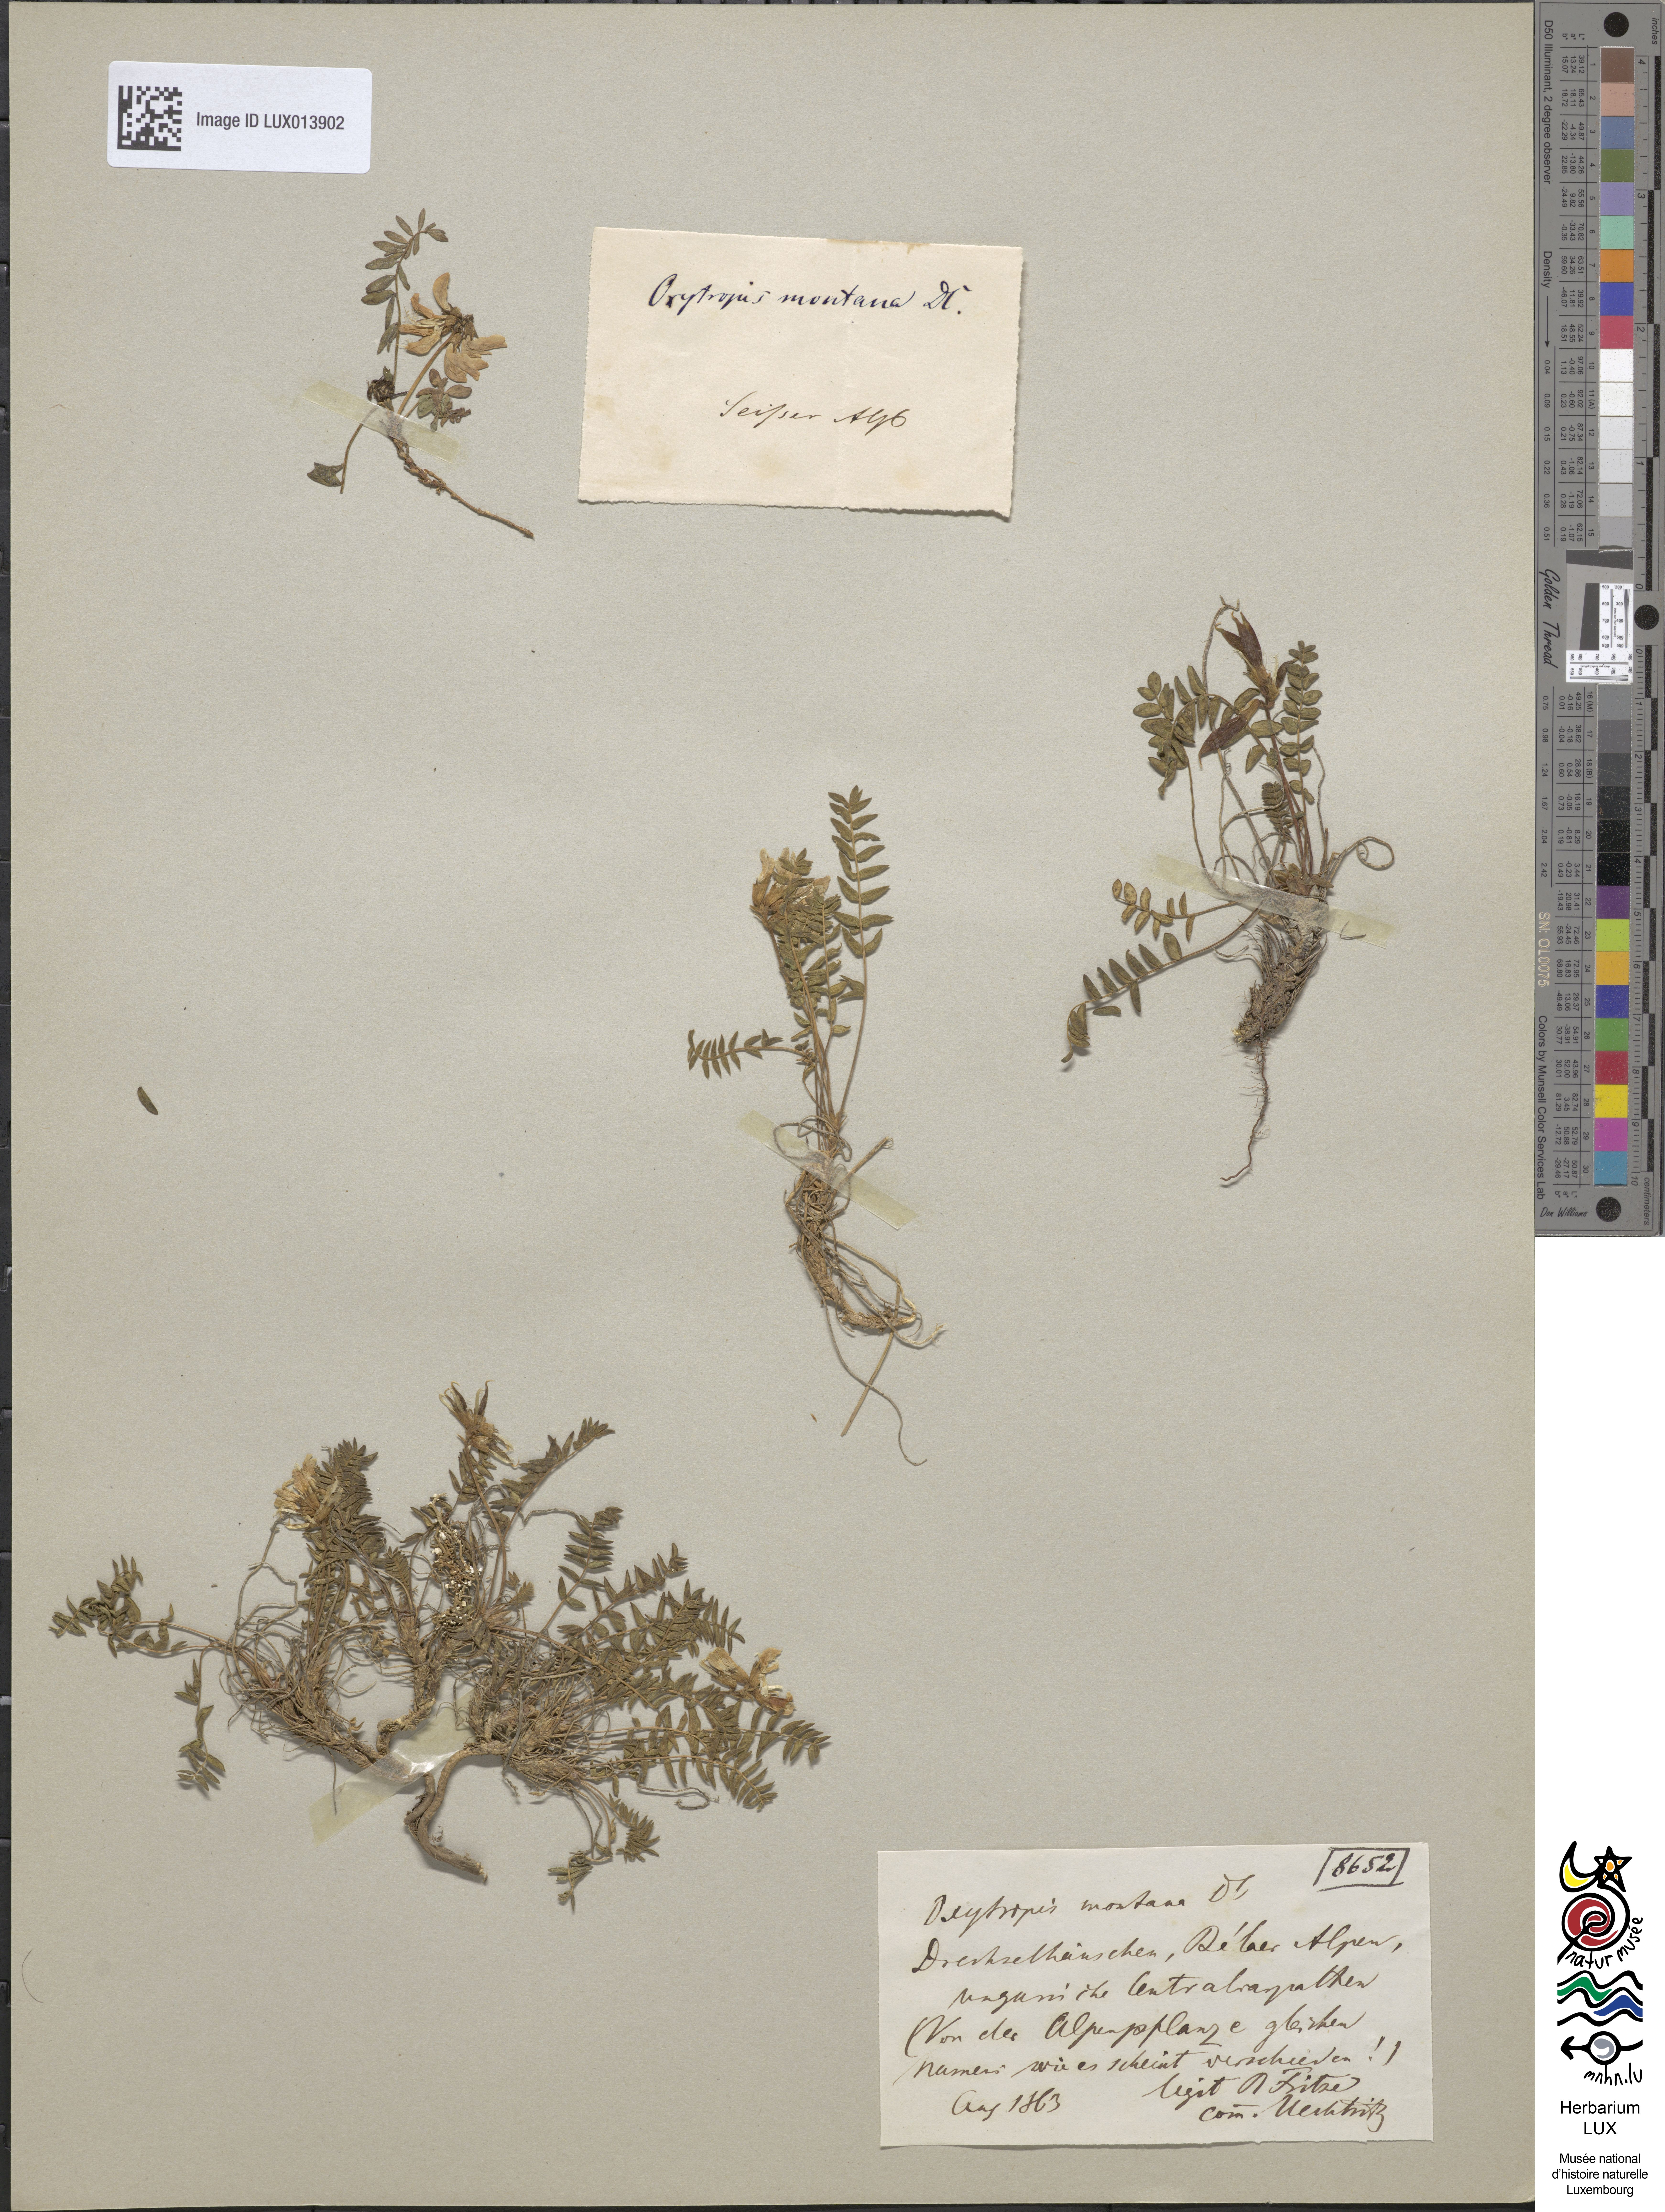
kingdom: Plantae
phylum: Tracheophyta
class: Magnoliopsida
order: Fabales
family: Fabaceae
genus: Oxytropis
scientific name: Oxytropis montana
